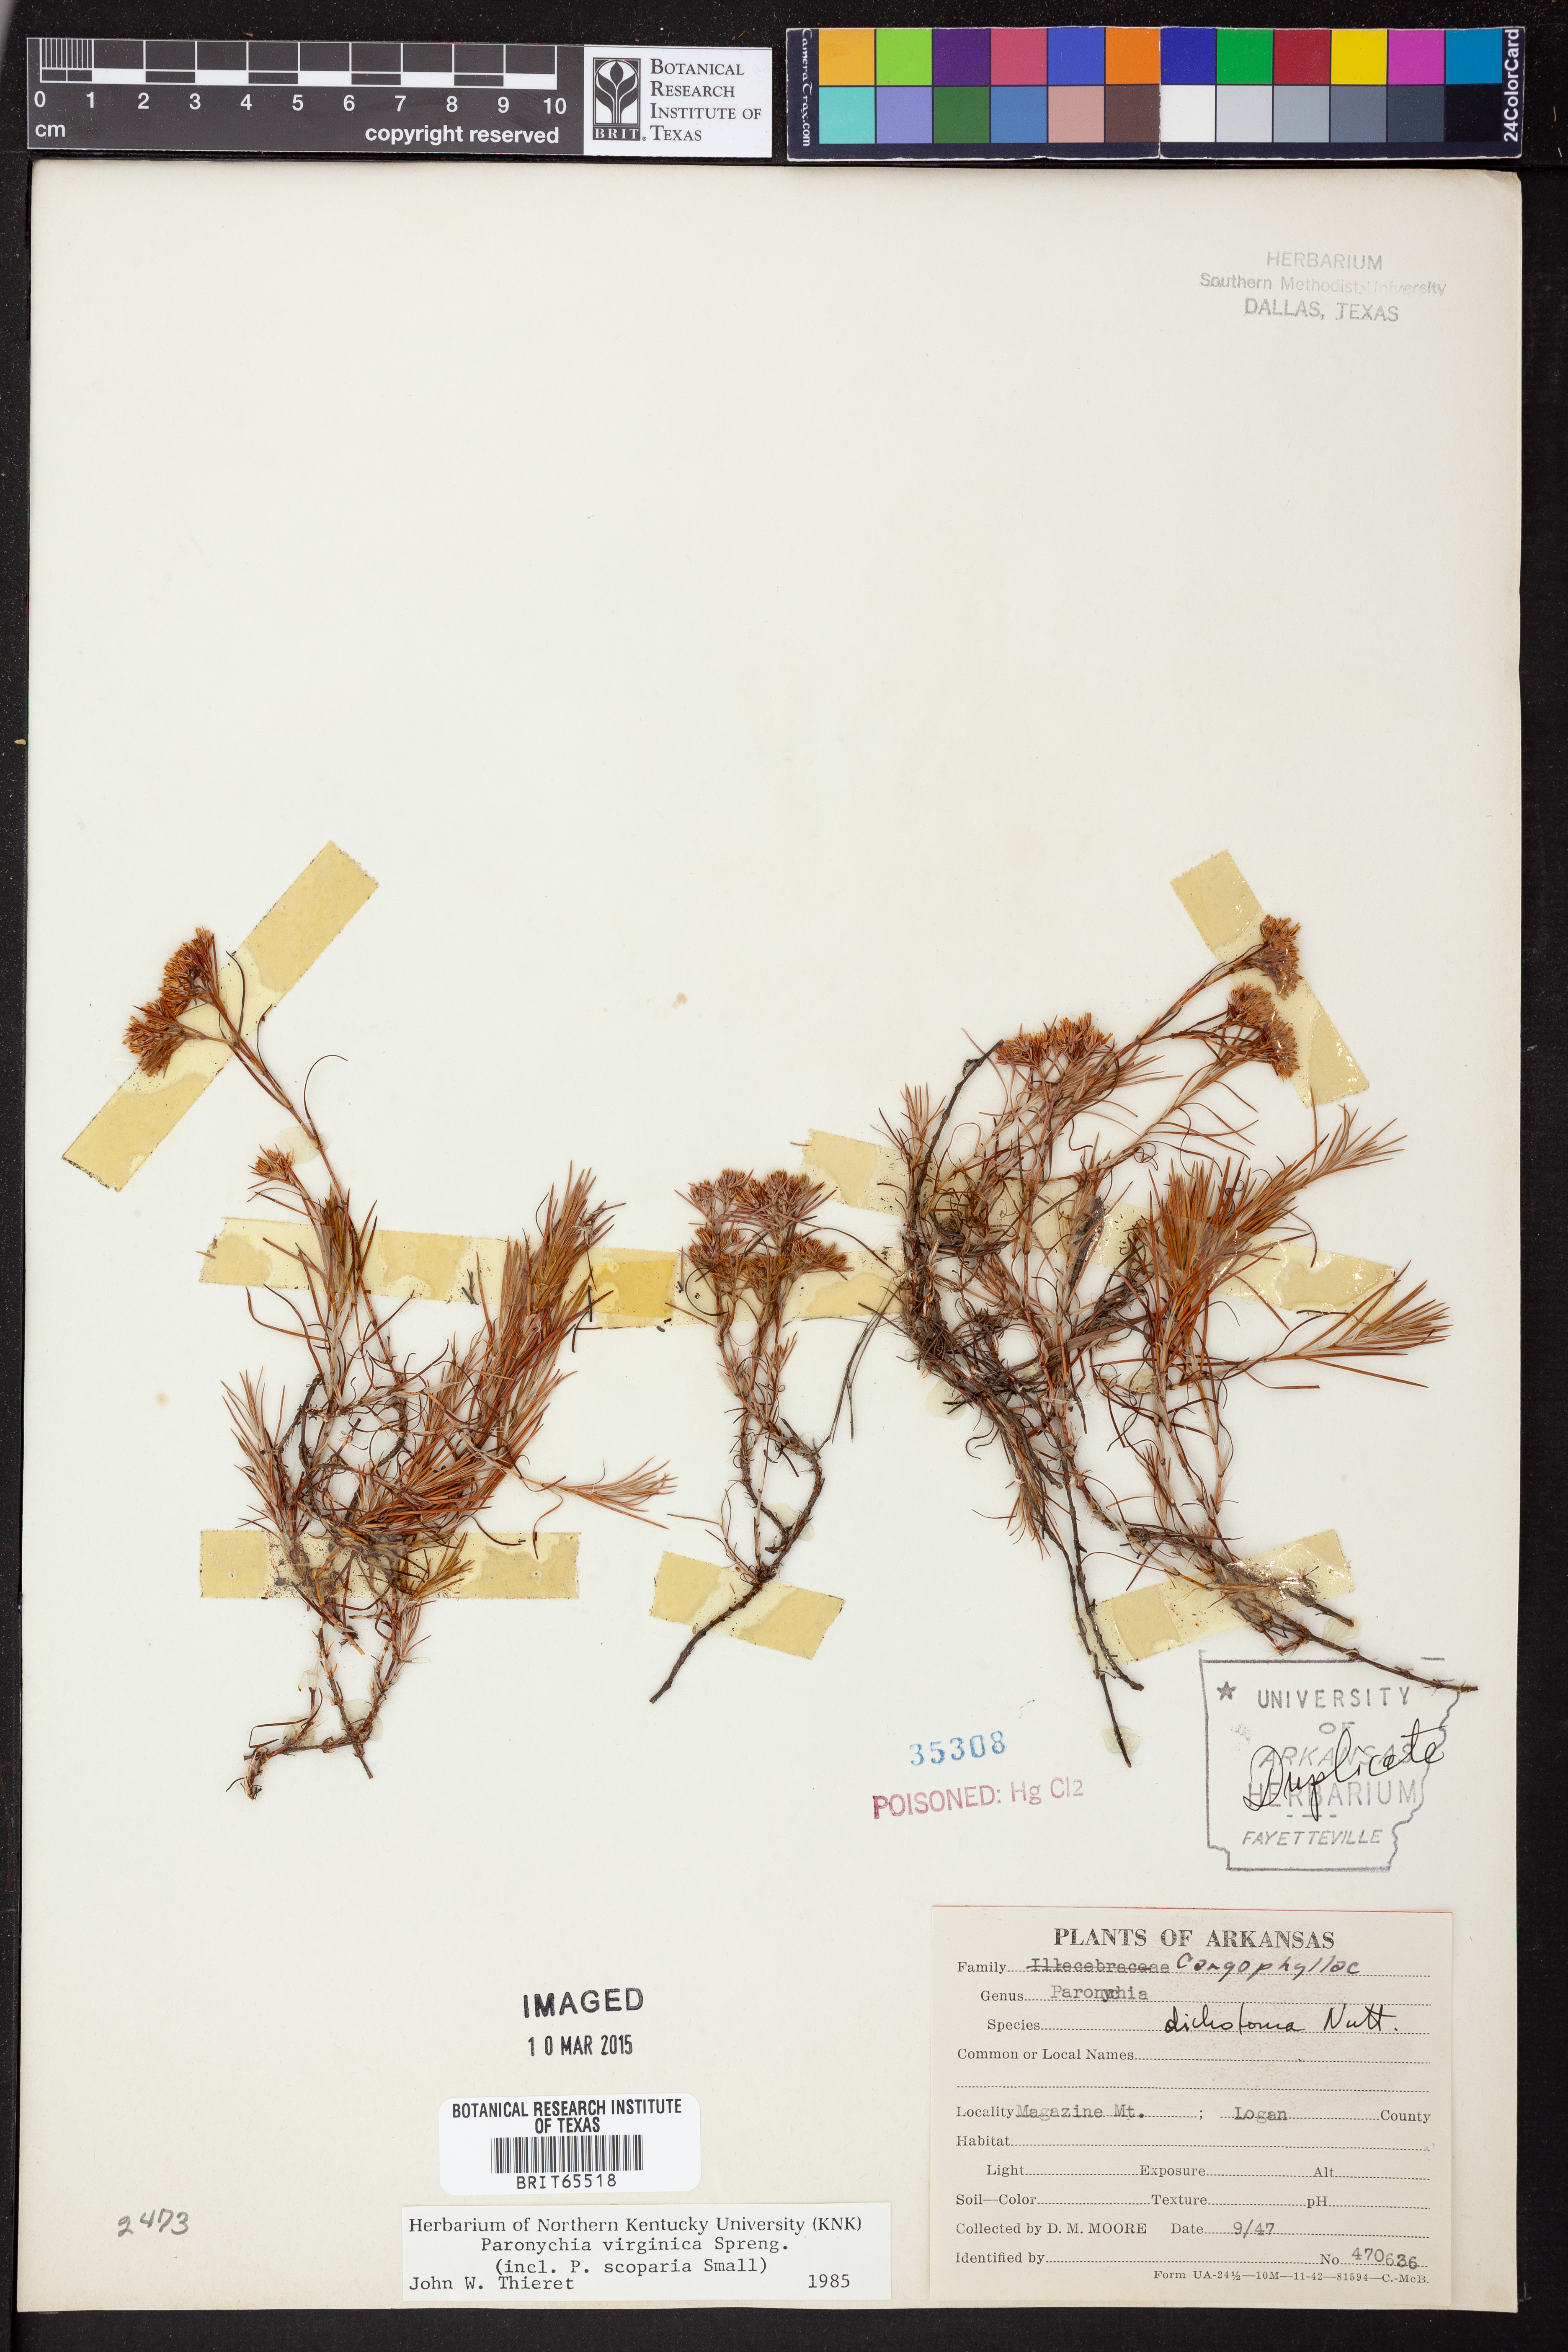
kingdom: Plantae
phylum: Tracheophyta
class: Magnoliopsida
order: Caryophyllales
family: Caryophyllaceae
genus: Paronychia
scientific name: Paronychia virginica
